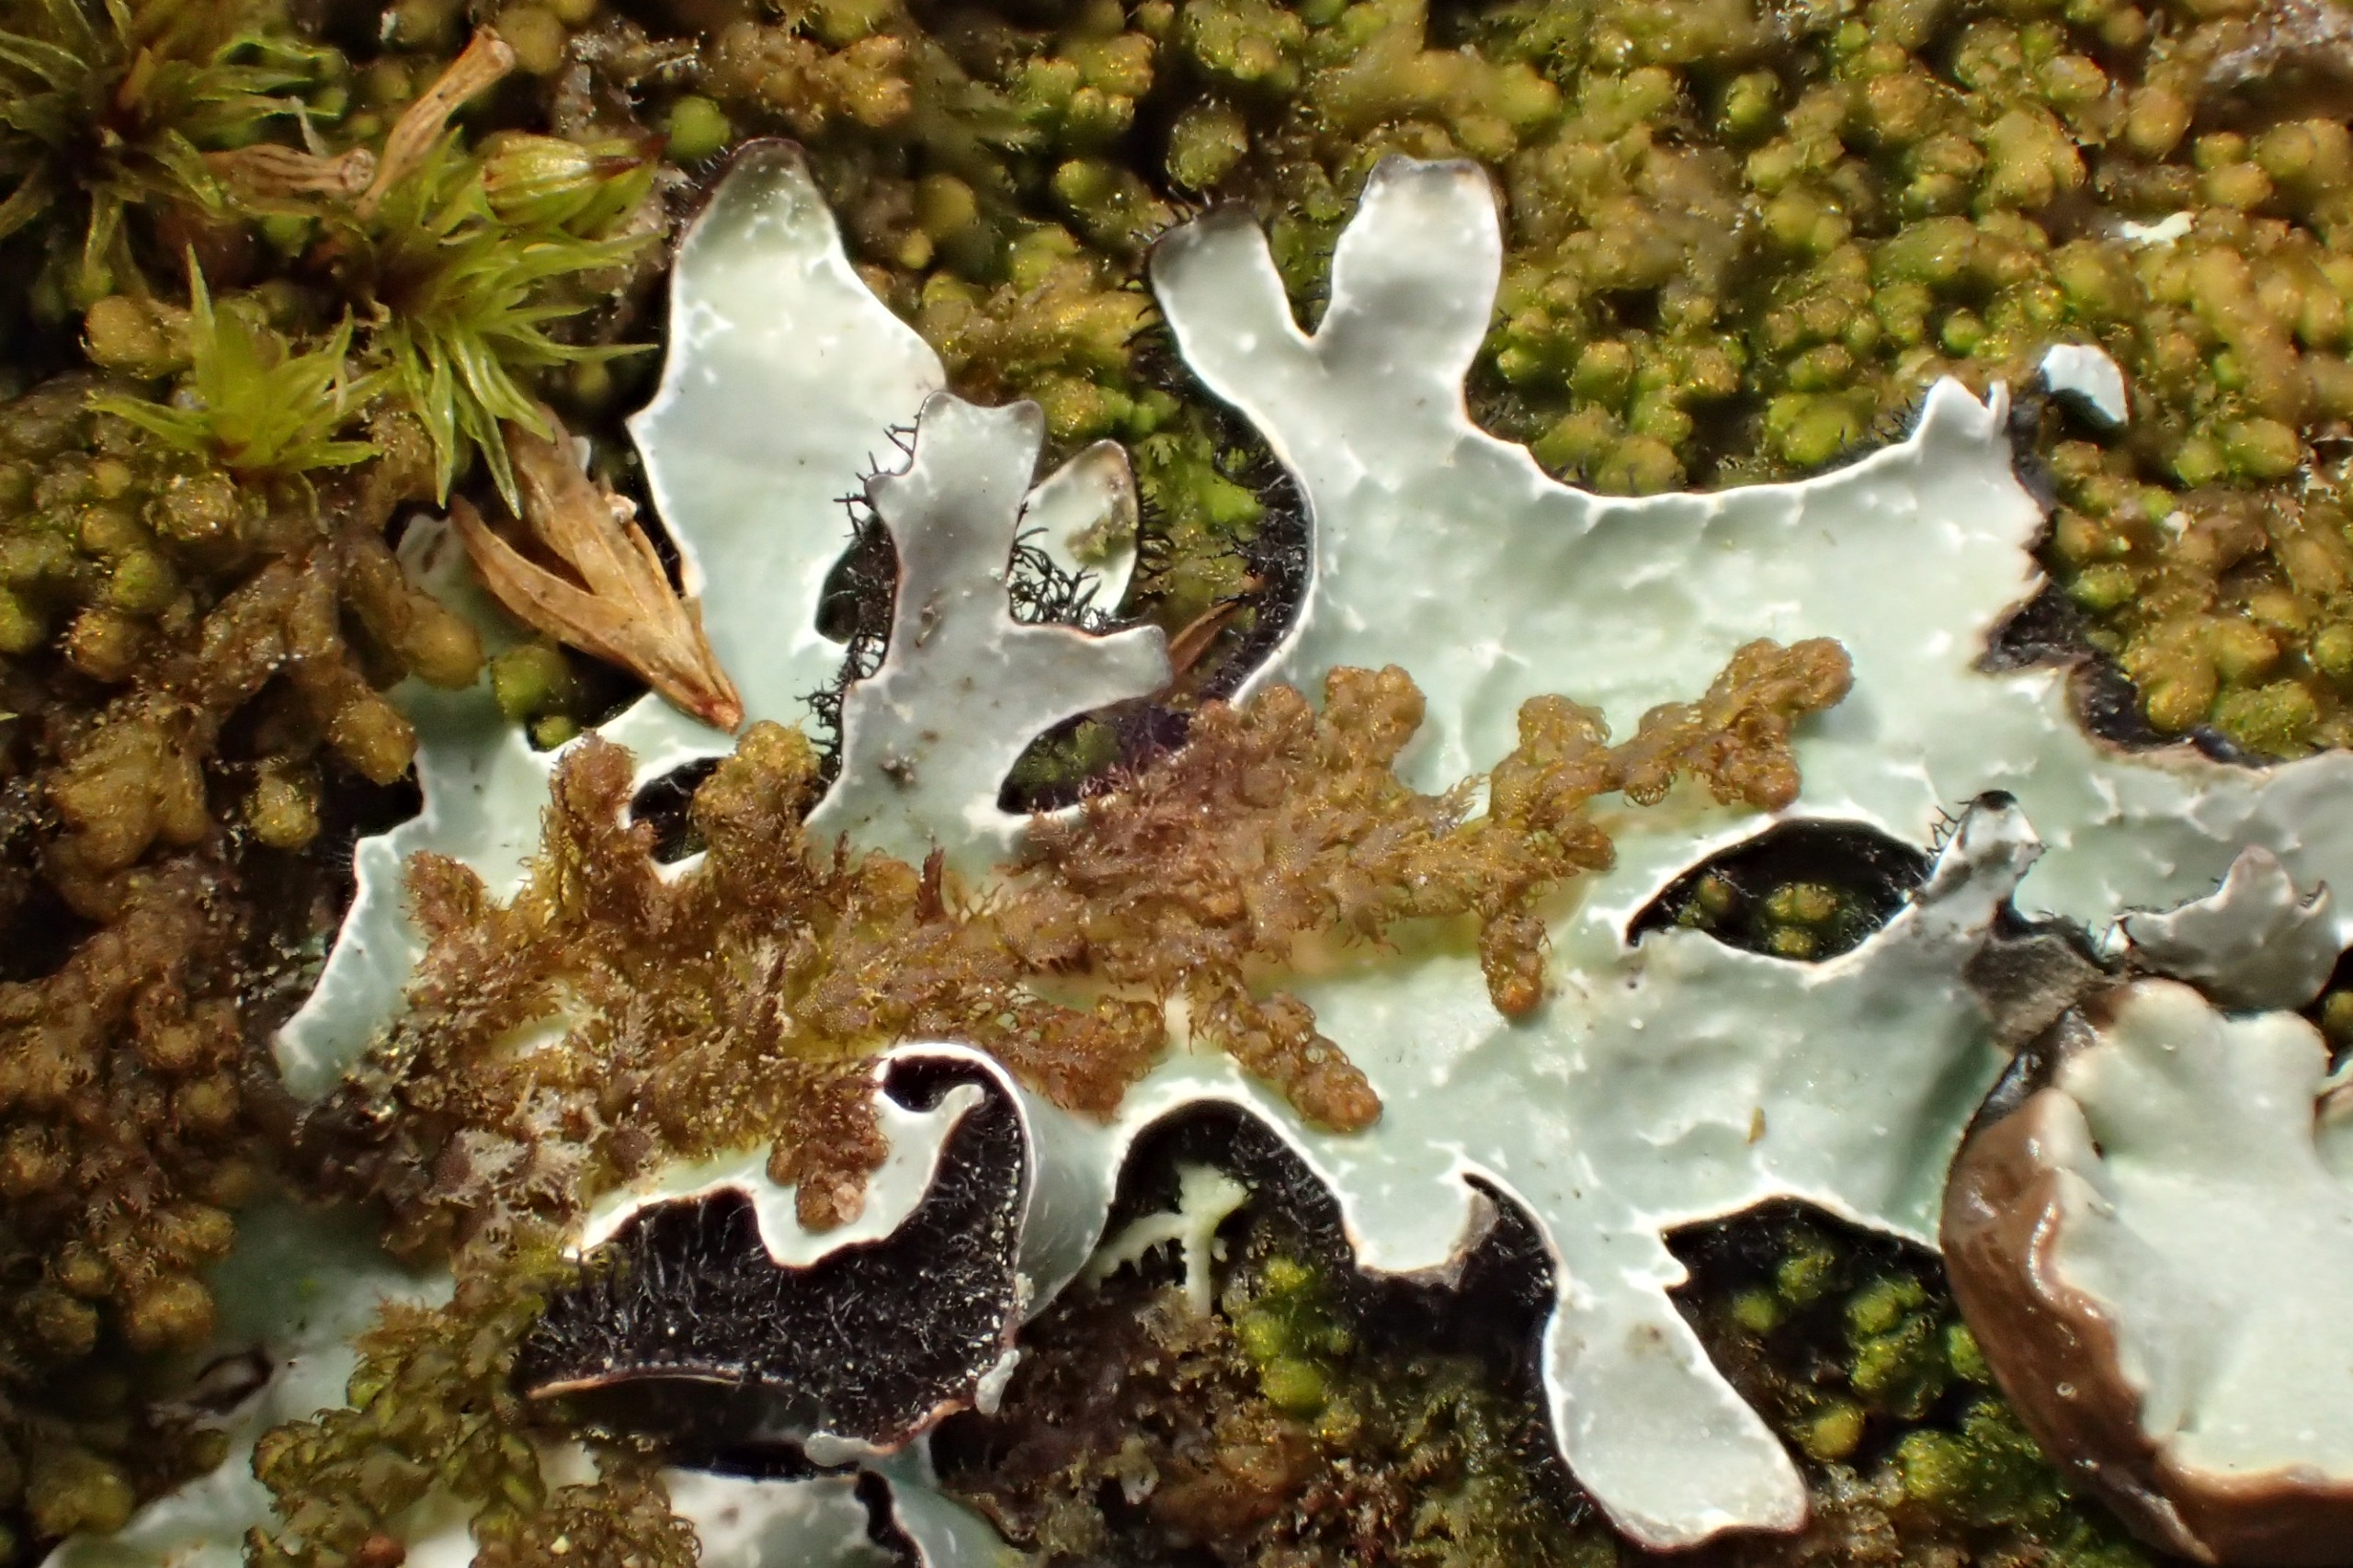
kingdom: Plantae
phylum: Marchantiophyta
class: Jungermanniopsida
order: Ptilidiales
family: Ptilidiaceae
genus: Ptilidium
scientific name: Ptilidium pulcherrimum
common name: Stub-frynsemos
